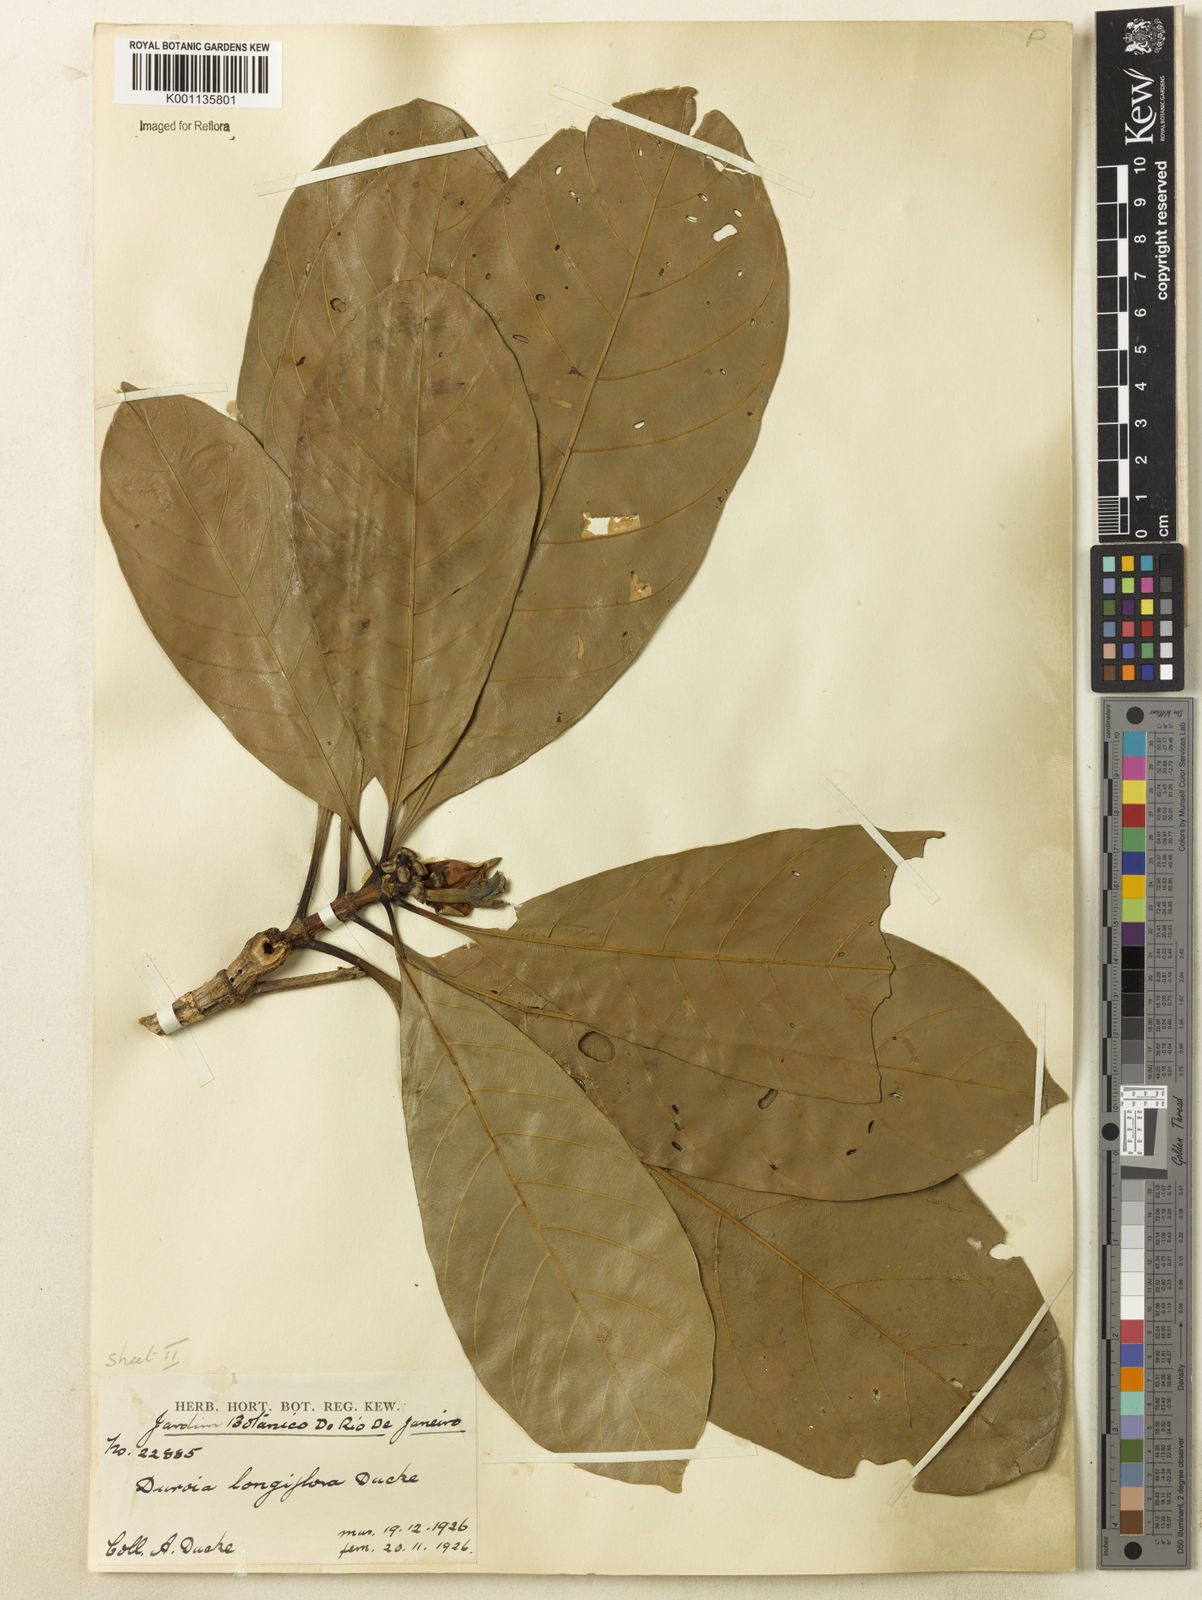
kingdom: Plantae
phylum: Tracheophyta
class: Magnoliopsida
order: Gentianales
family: Rubiaceae
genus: Duroia
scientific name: Duroia genipoides
